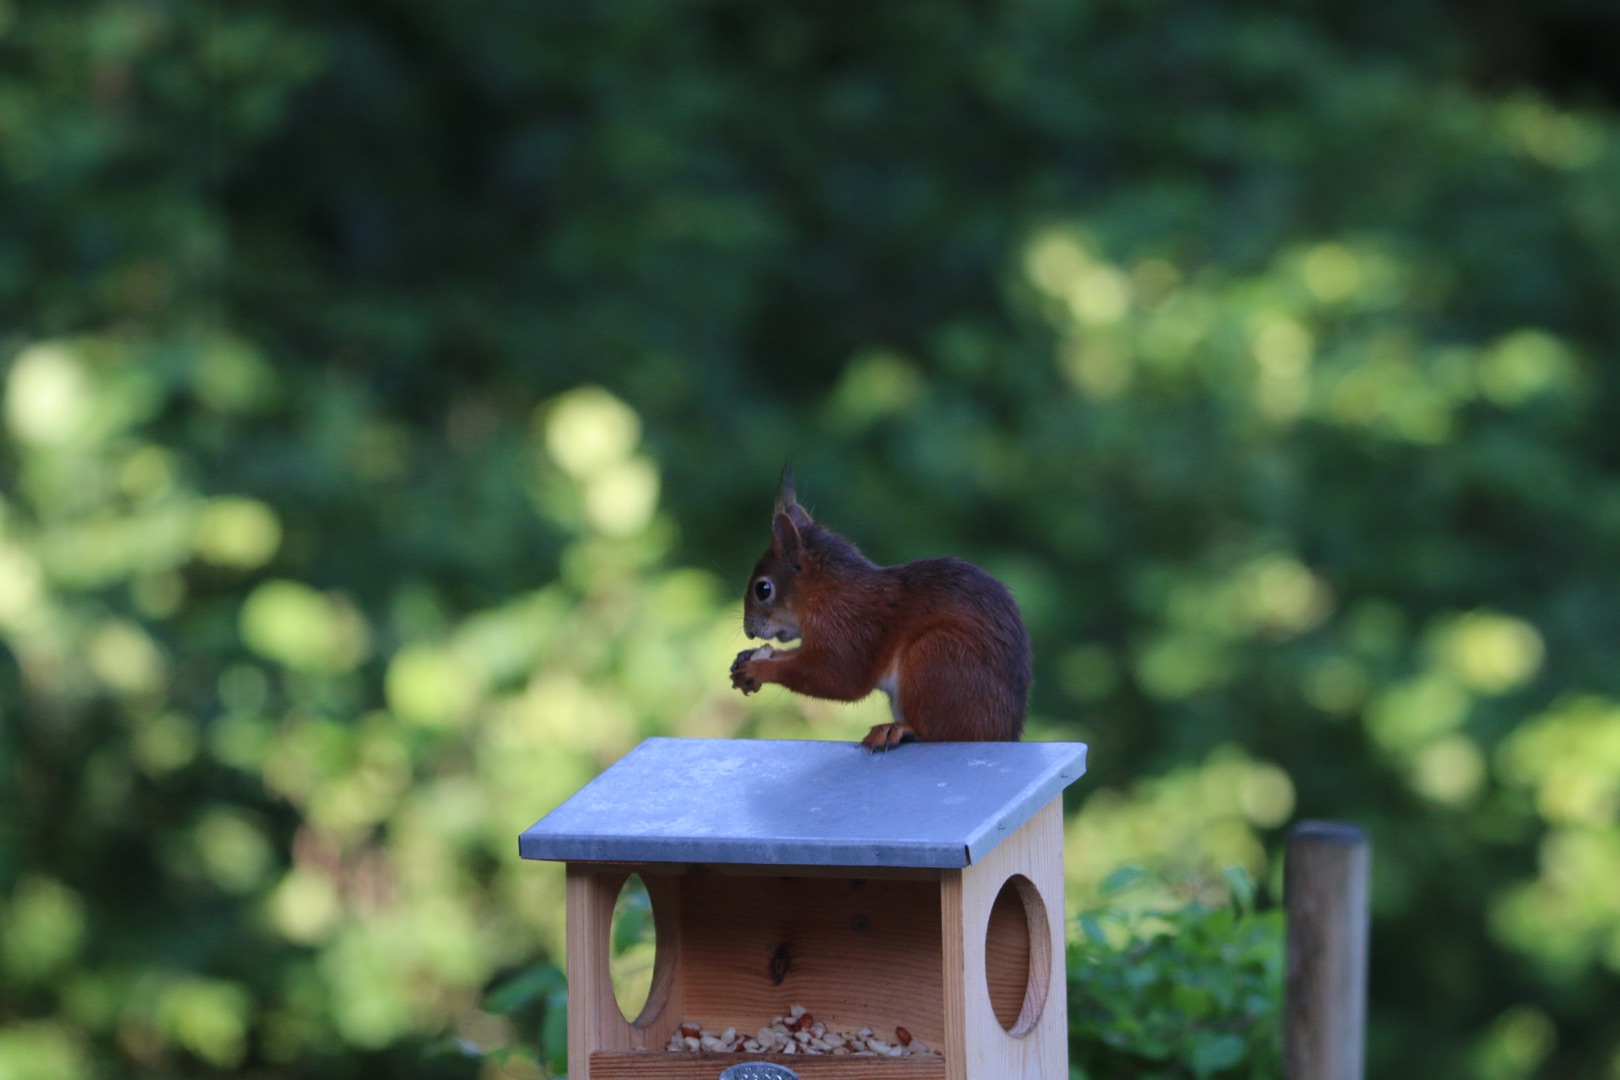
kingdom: Animalia
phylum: Chordata
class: Mammalia
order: Rodentia
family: Sciuridae
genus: Sciurus
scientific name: Sciurus vulgaris
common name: Egern
